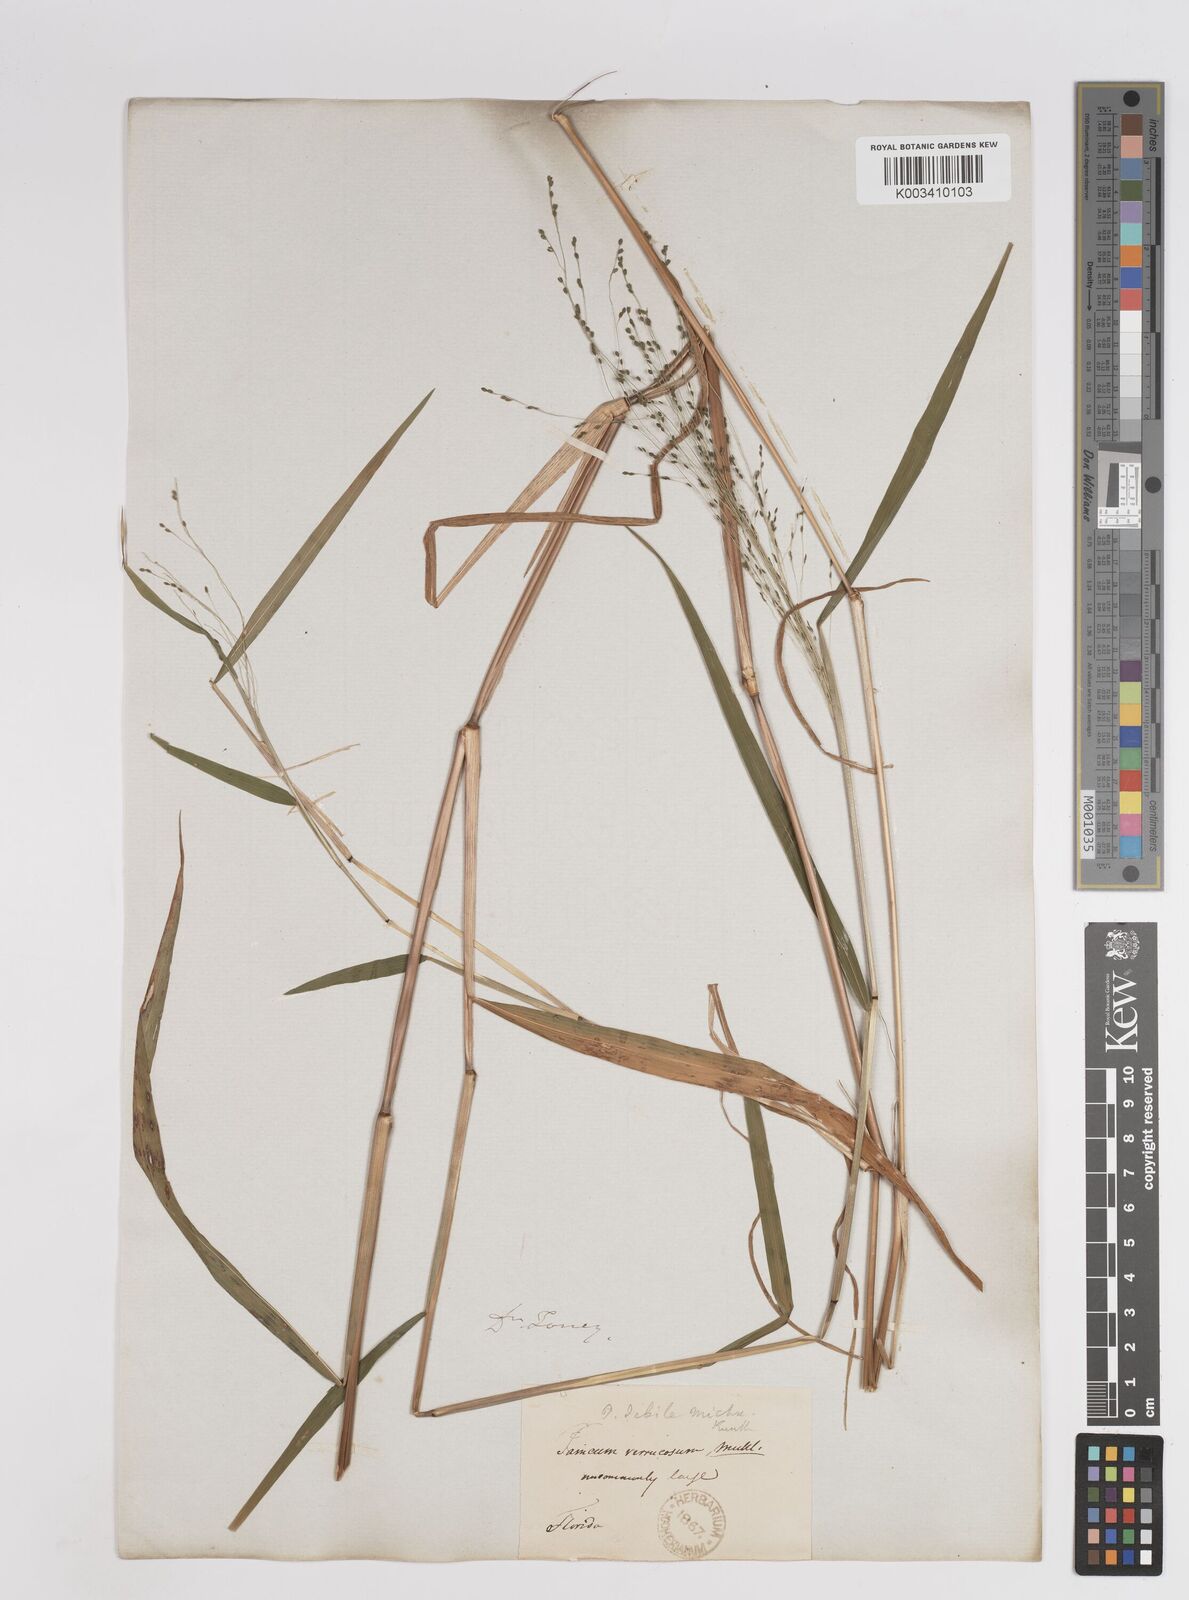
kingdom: Plantae
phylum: Tracheophyta
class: Liliopsida
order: Poales
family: Poaceae
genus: Kellochloa
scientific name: Kellochloa verrucosa
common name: Warty panic grass
